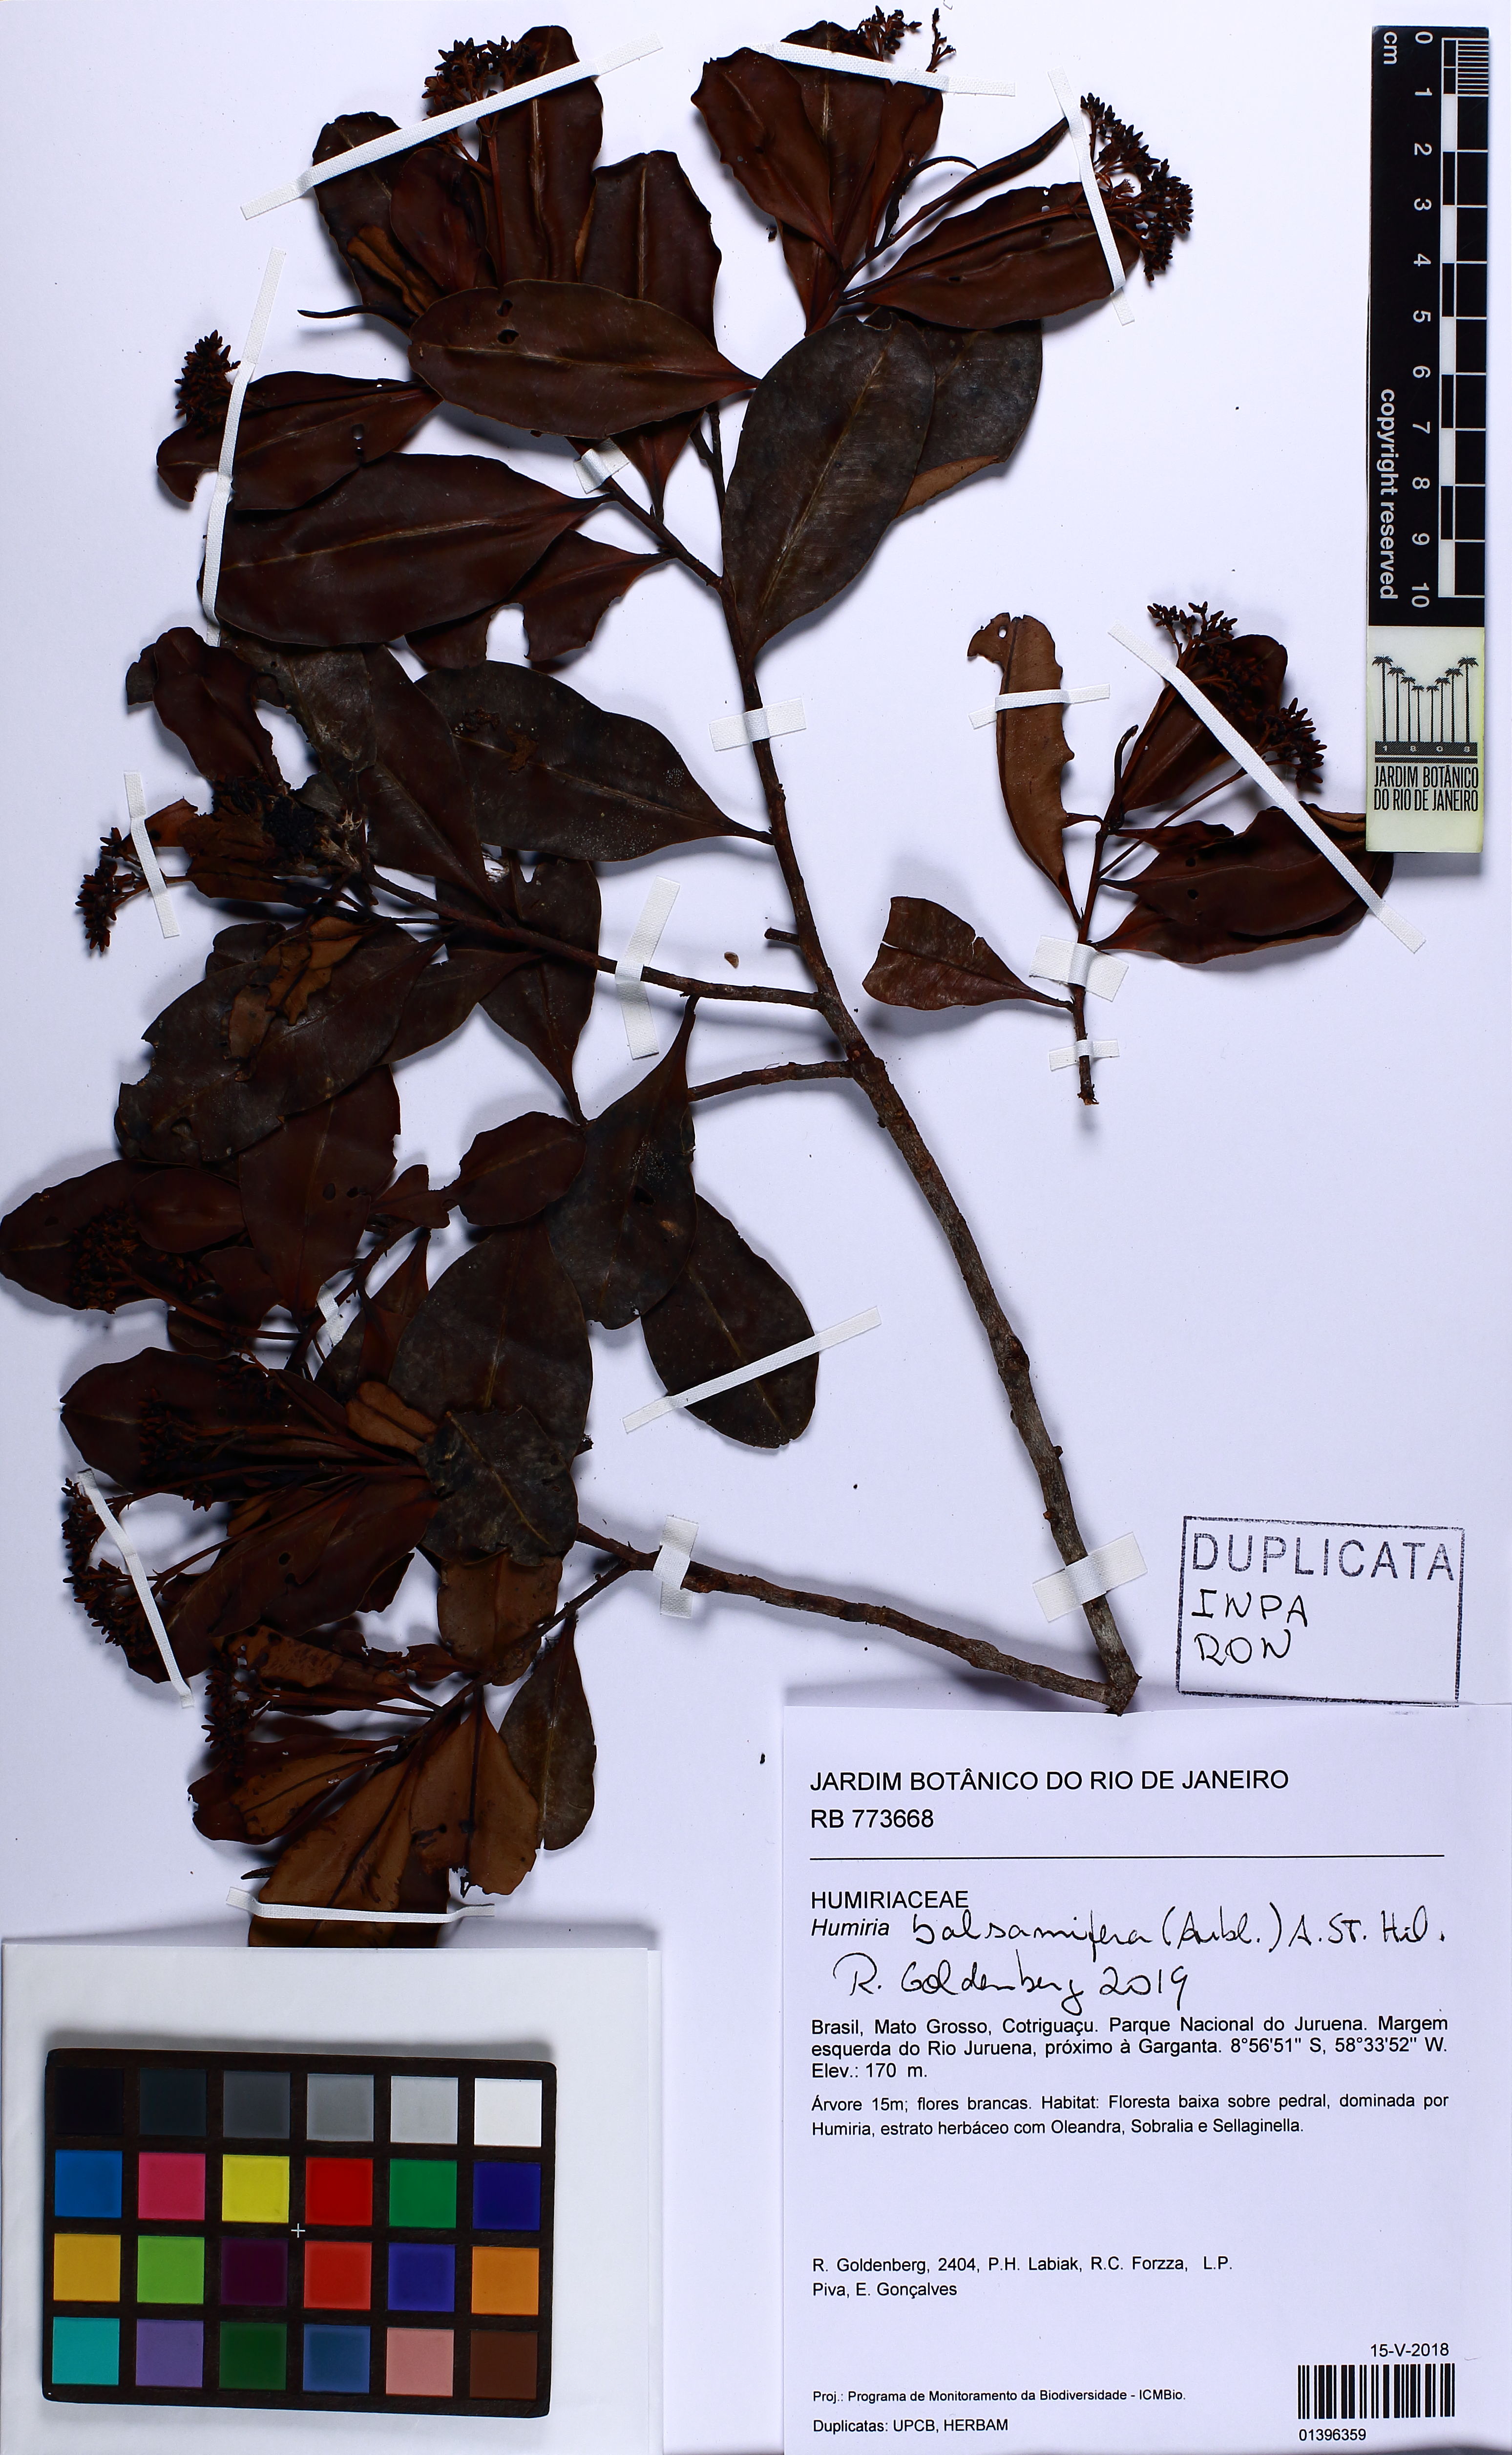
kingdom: Plantae
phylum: Tracheophyta
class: Magnoliopsida
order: Malpighiales
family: Humiriaceae
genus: Humiria
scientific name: Humiria balsamifera
